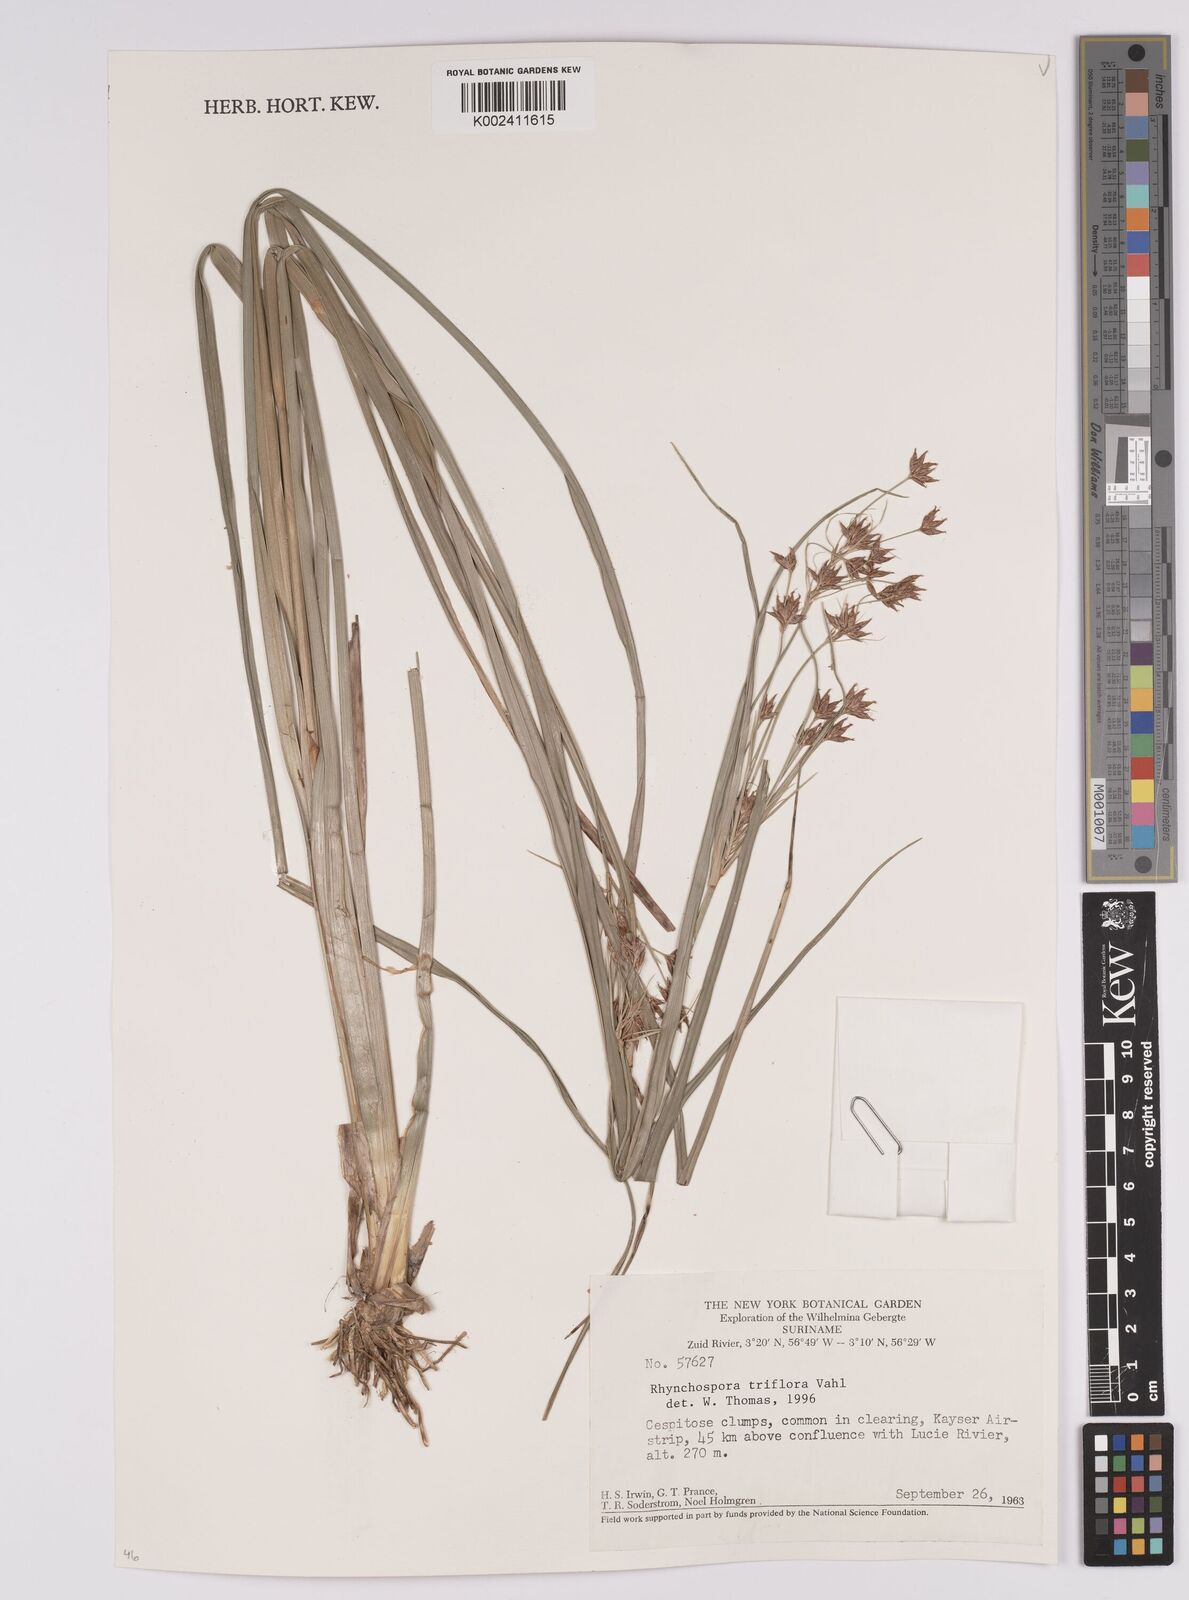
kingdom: Plantae
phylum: Tracheophyta
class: Liliopsida
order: Poales
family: Cyperaceae
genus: Rhynchospora
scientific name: Rhynchospora triflora
